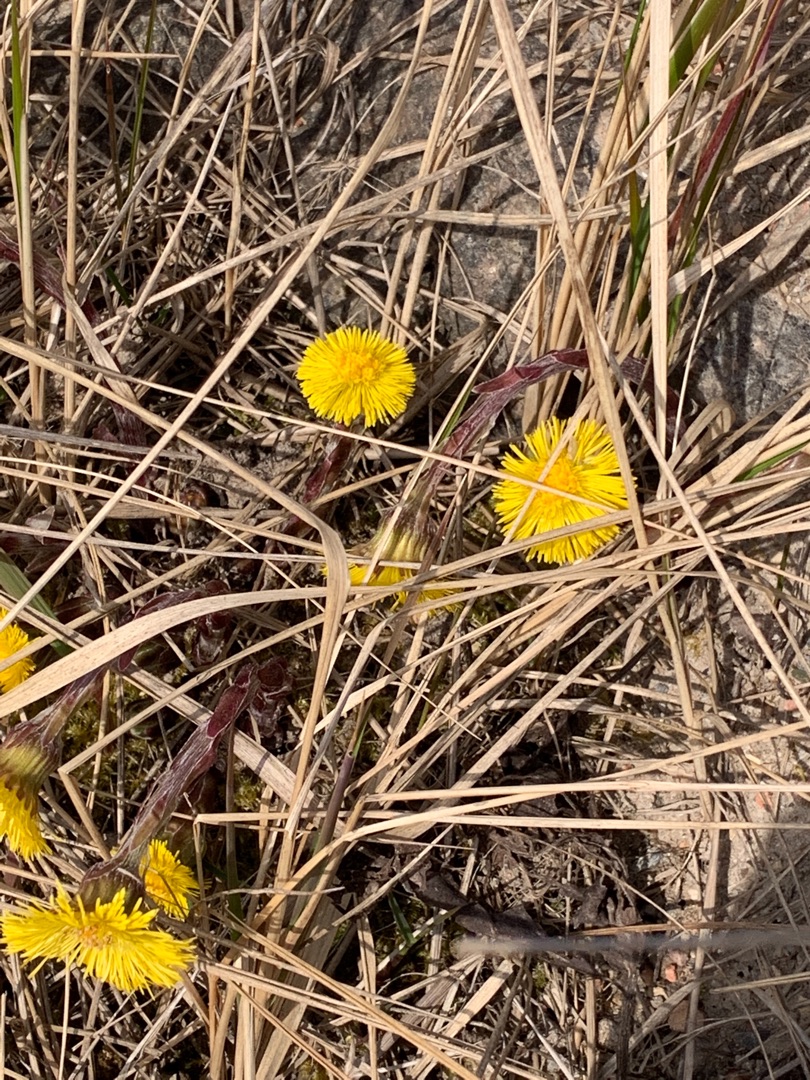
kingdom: Plantae
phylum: Tracheophyta
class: Magnoliopsida
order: Asterales
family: Asteraceae
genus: Tussilago
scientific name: Tussilago farfara
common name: Følfod
